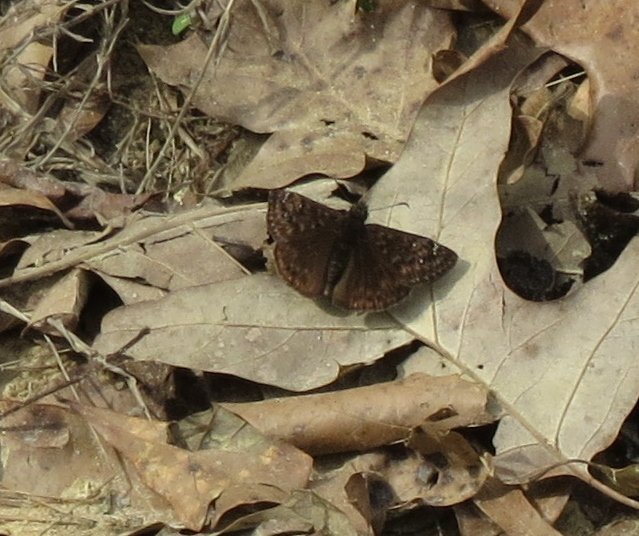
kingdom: Animalia
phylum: Arthropoda
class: Insecta
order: Lepidoptera
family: Hesperiidae
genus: Gesta
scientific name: Gesta
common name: Horace's Duskywing
